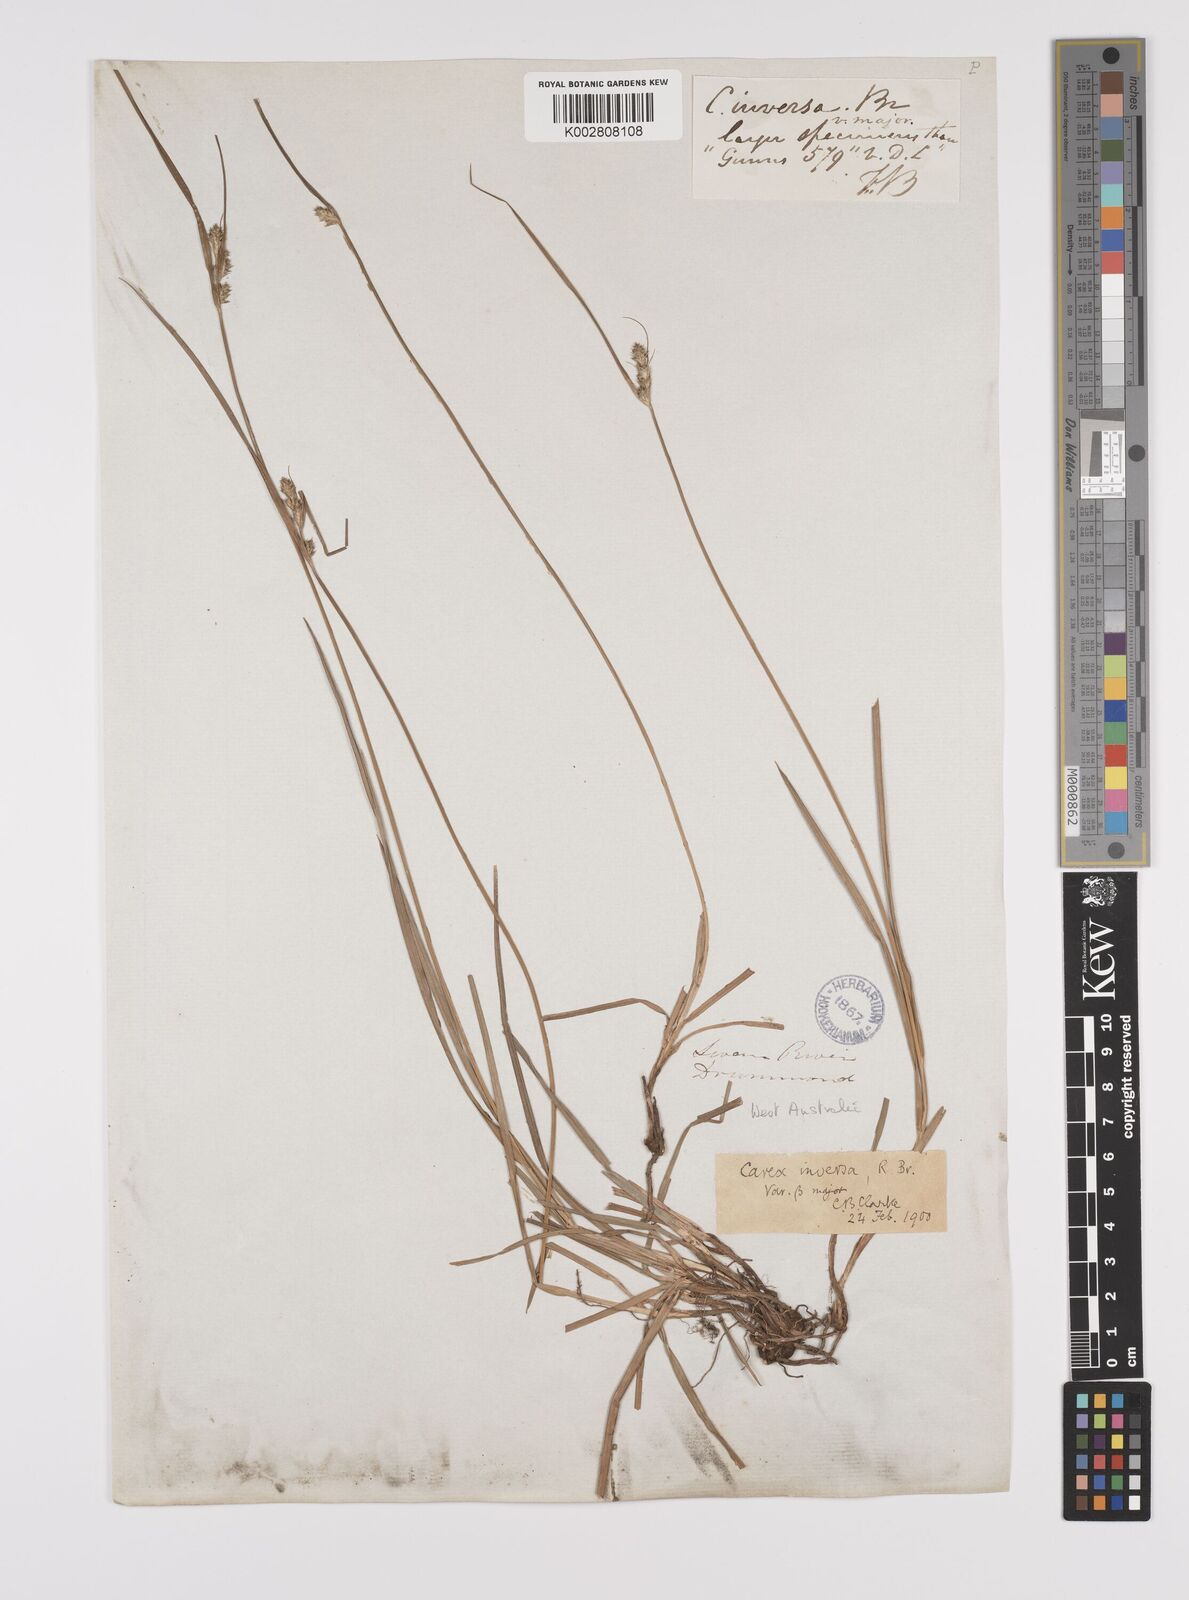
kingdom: Plantae
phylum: Tracheophyta
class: Liliopsida
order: Poales
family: Cyperaceae
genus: Carex
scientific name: Carex inversa
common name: Knob sedge
